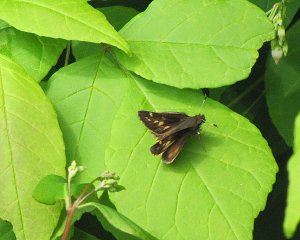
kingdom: Animalia
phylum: Arthropoda
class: Insecta
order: Lepidoptera
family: Hesperiidae
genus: Lon
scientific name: Lon hobomok
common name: Hobomok Skipper
